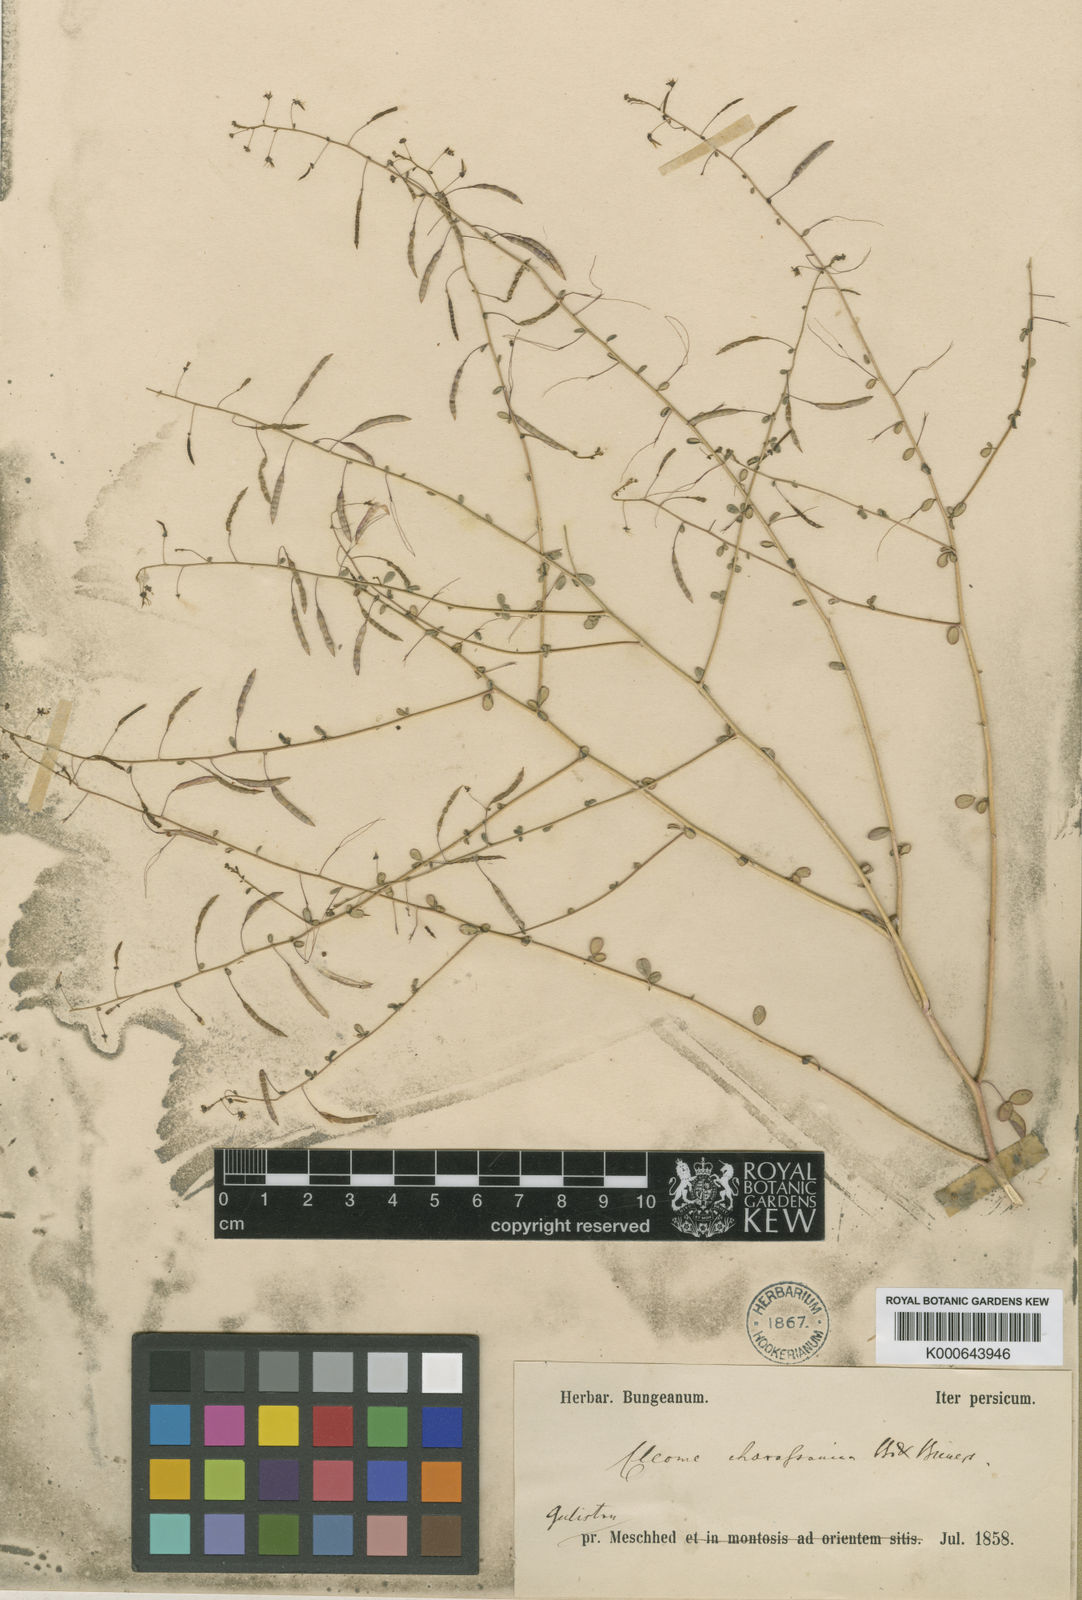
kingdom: Plantae
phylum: Tracheophyta
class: Magnoliopsida
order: Brassicales
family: Cleomaceae
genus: Cleome
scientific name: Cleome khorassanica
